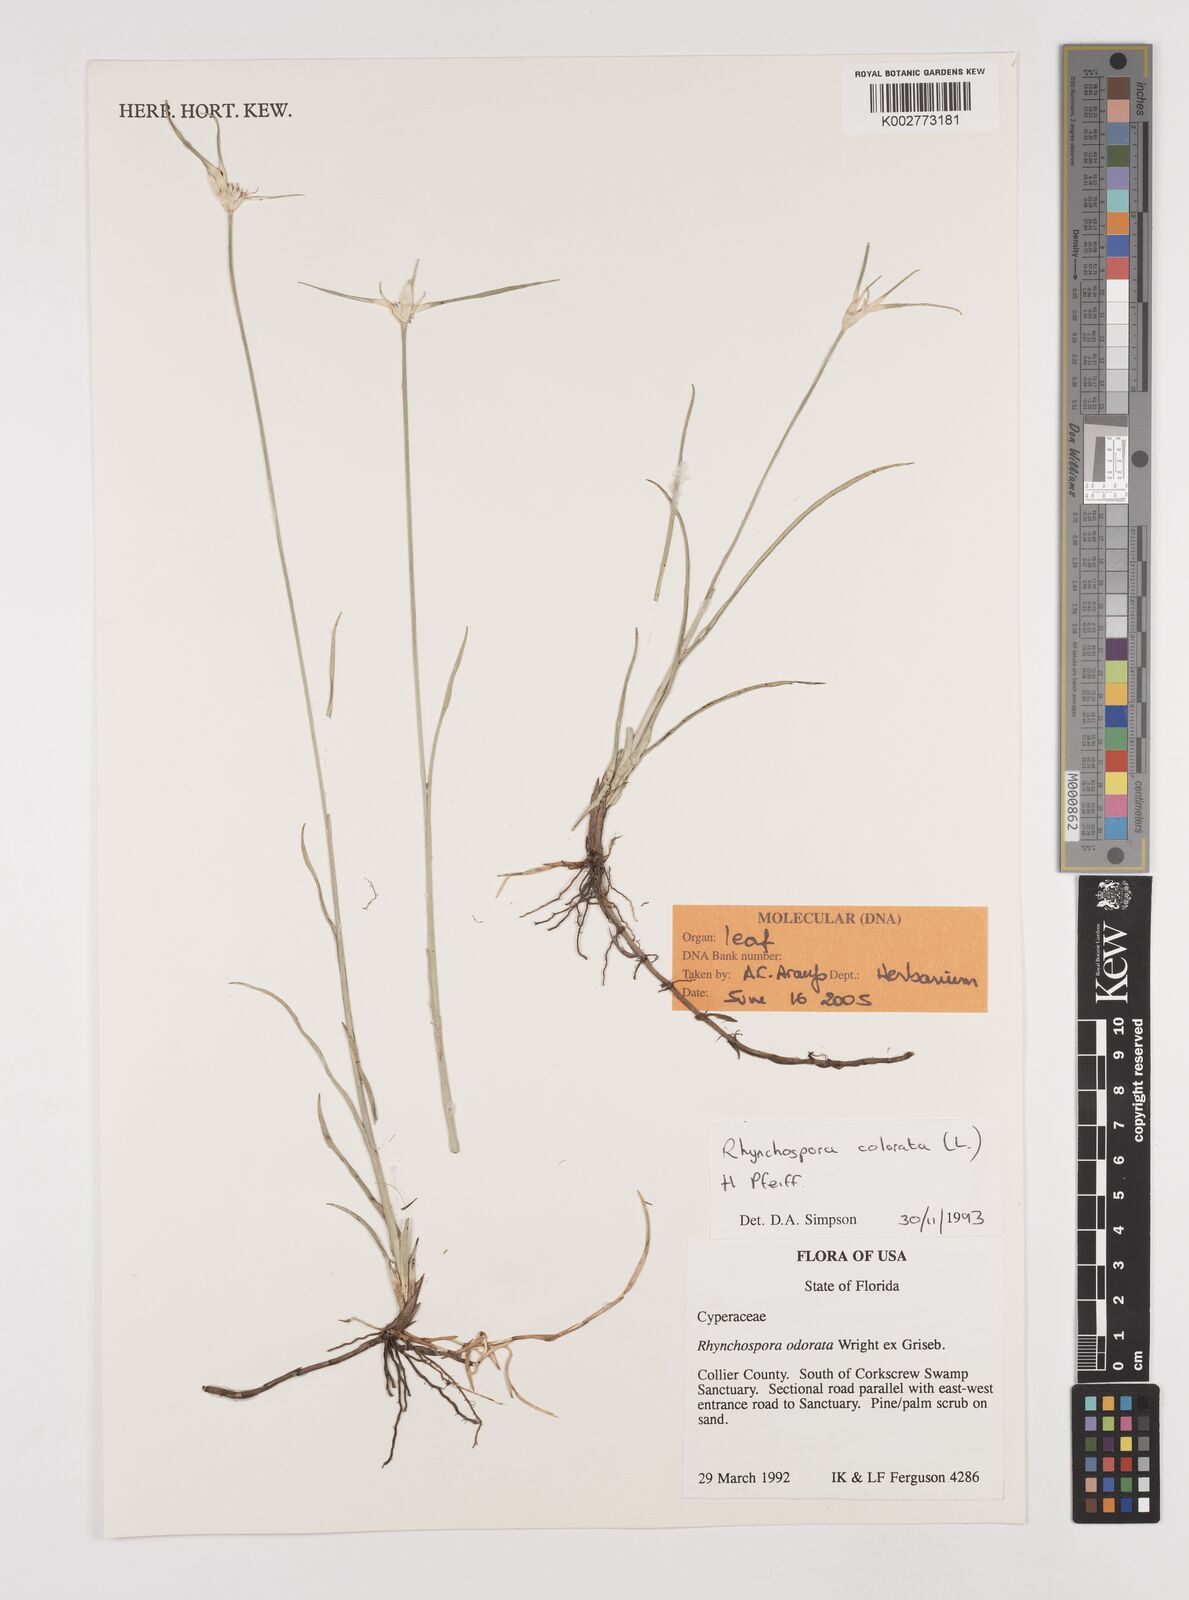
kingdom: Plantae
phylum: Tracheophyta
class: Liliopsida
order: Poales
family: Cyperaceae
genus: Rhynchospora
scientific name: Rhynchospora colorata
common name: Star sedge
